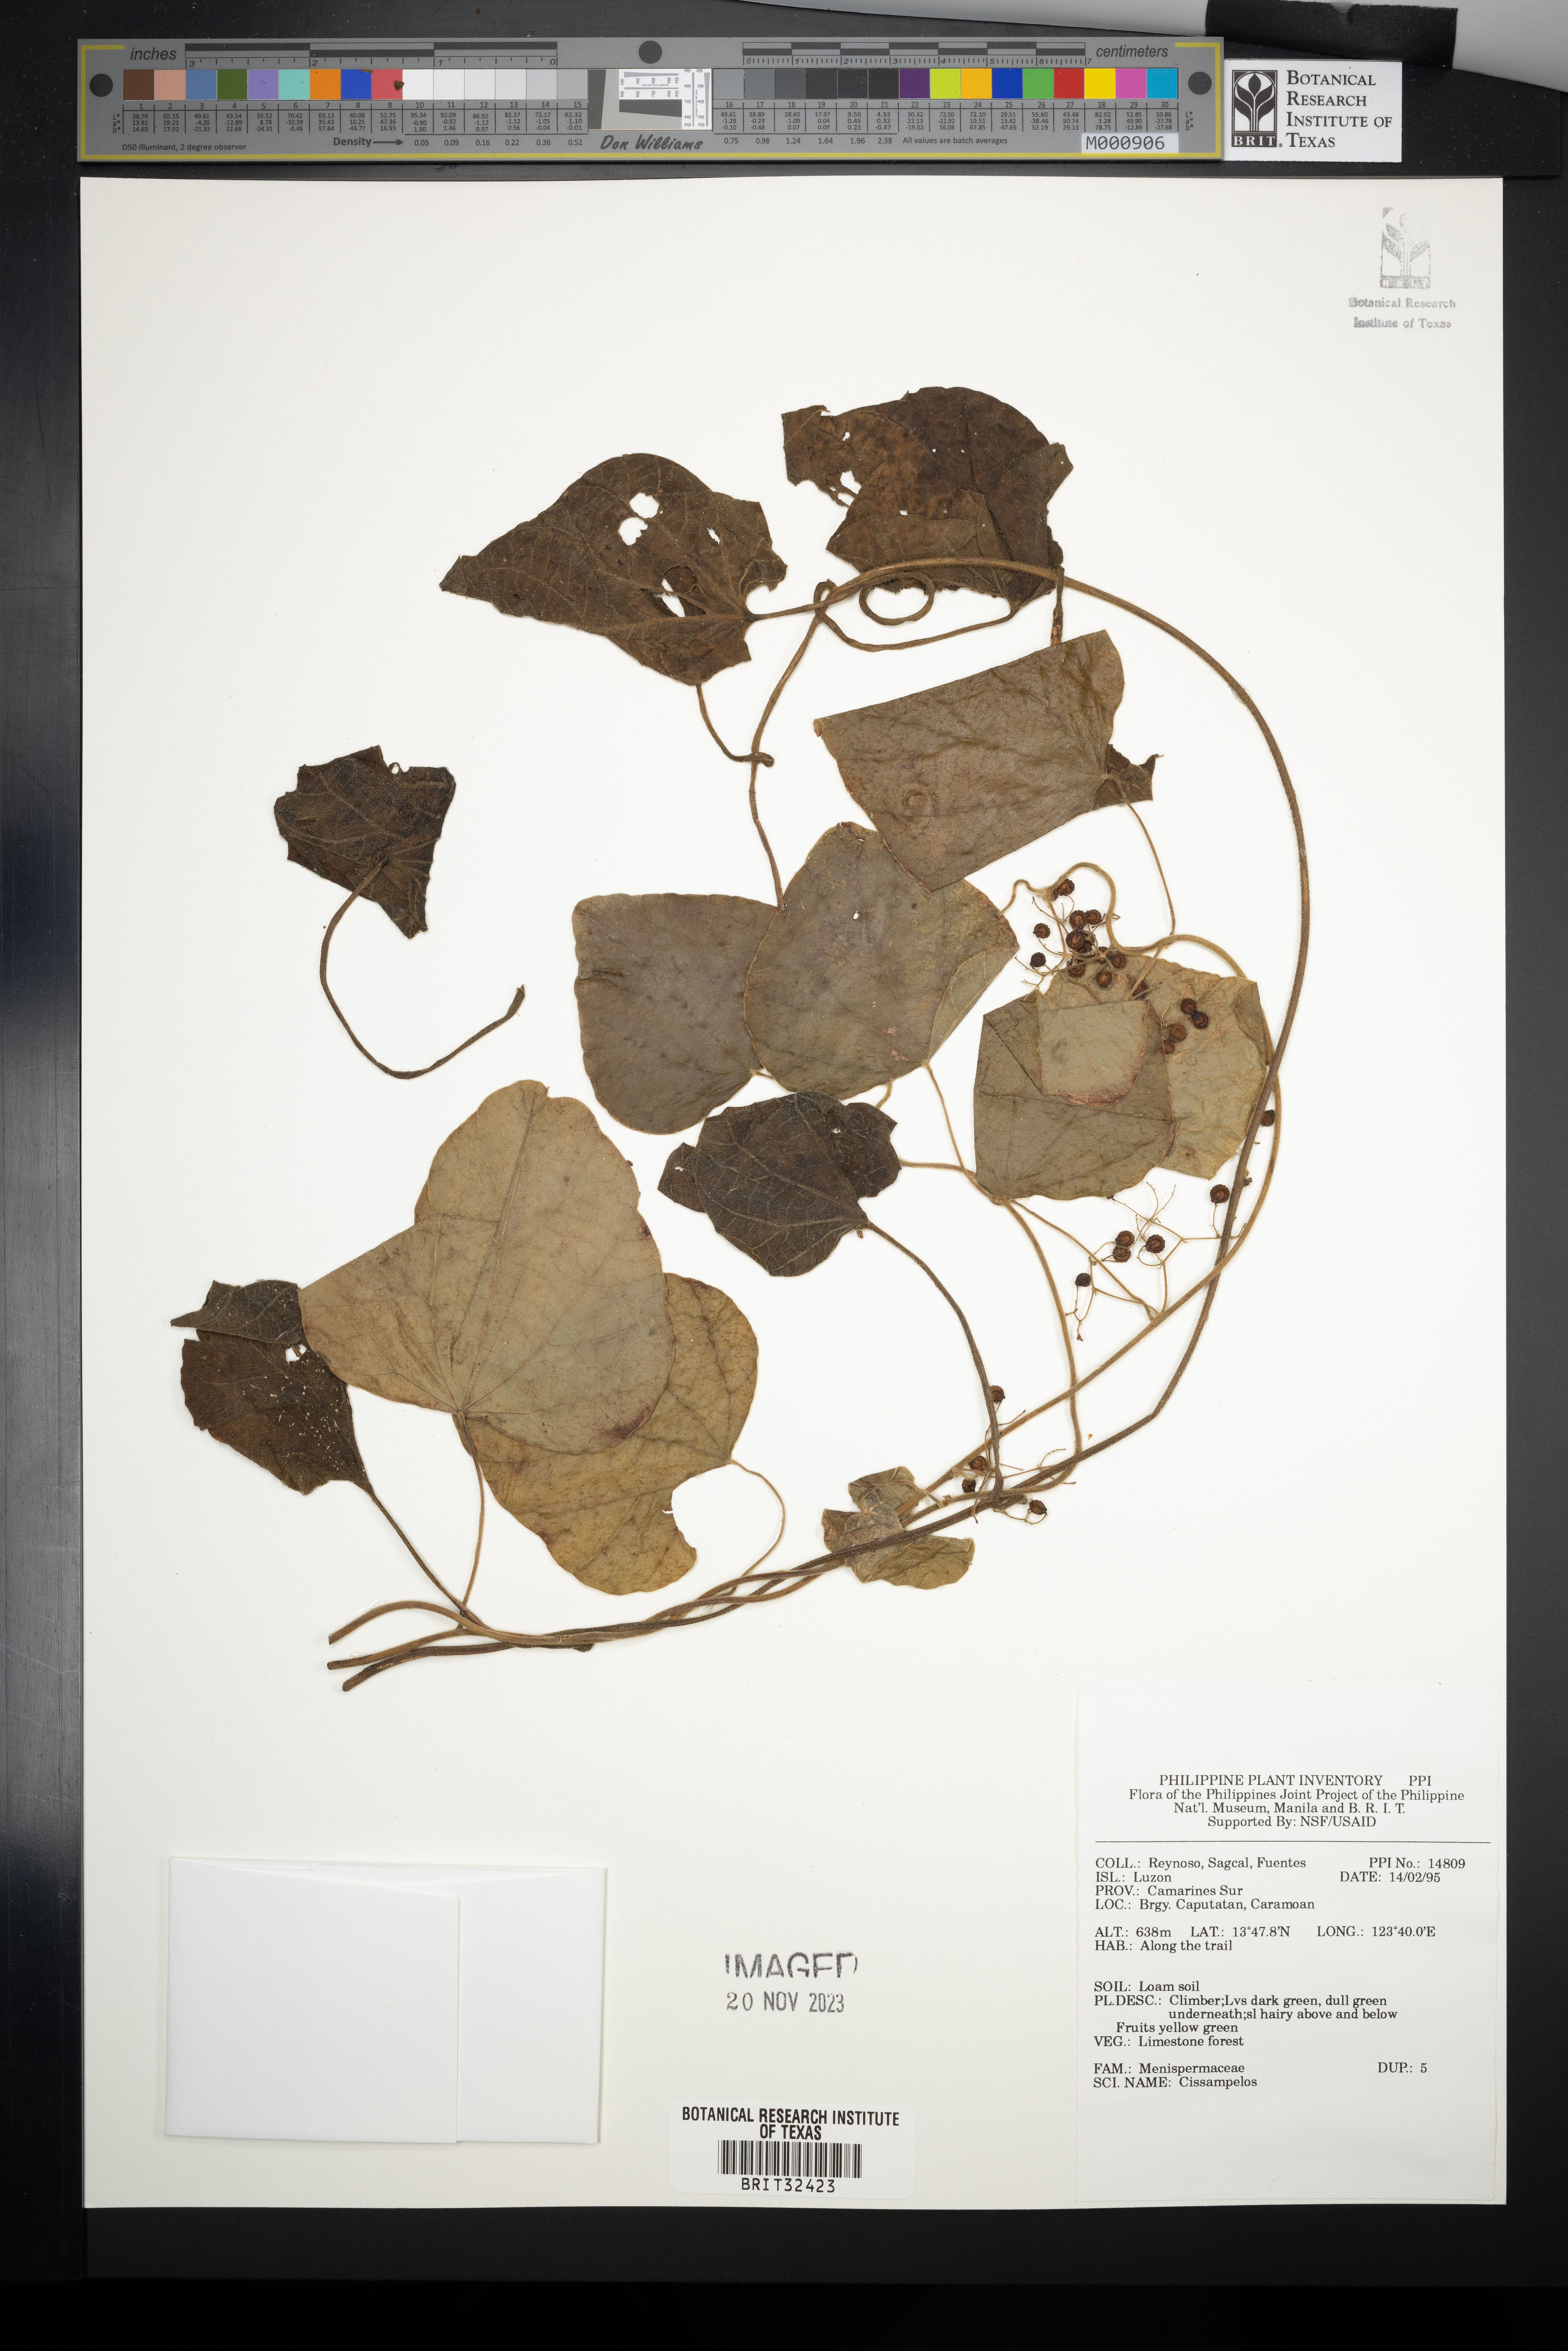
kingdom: Plantae
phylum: Tracheophyta
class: Magnoliopsida
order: Ranunculales
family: Menispermaceae
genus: Cissampelos
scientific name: Cissampelos
